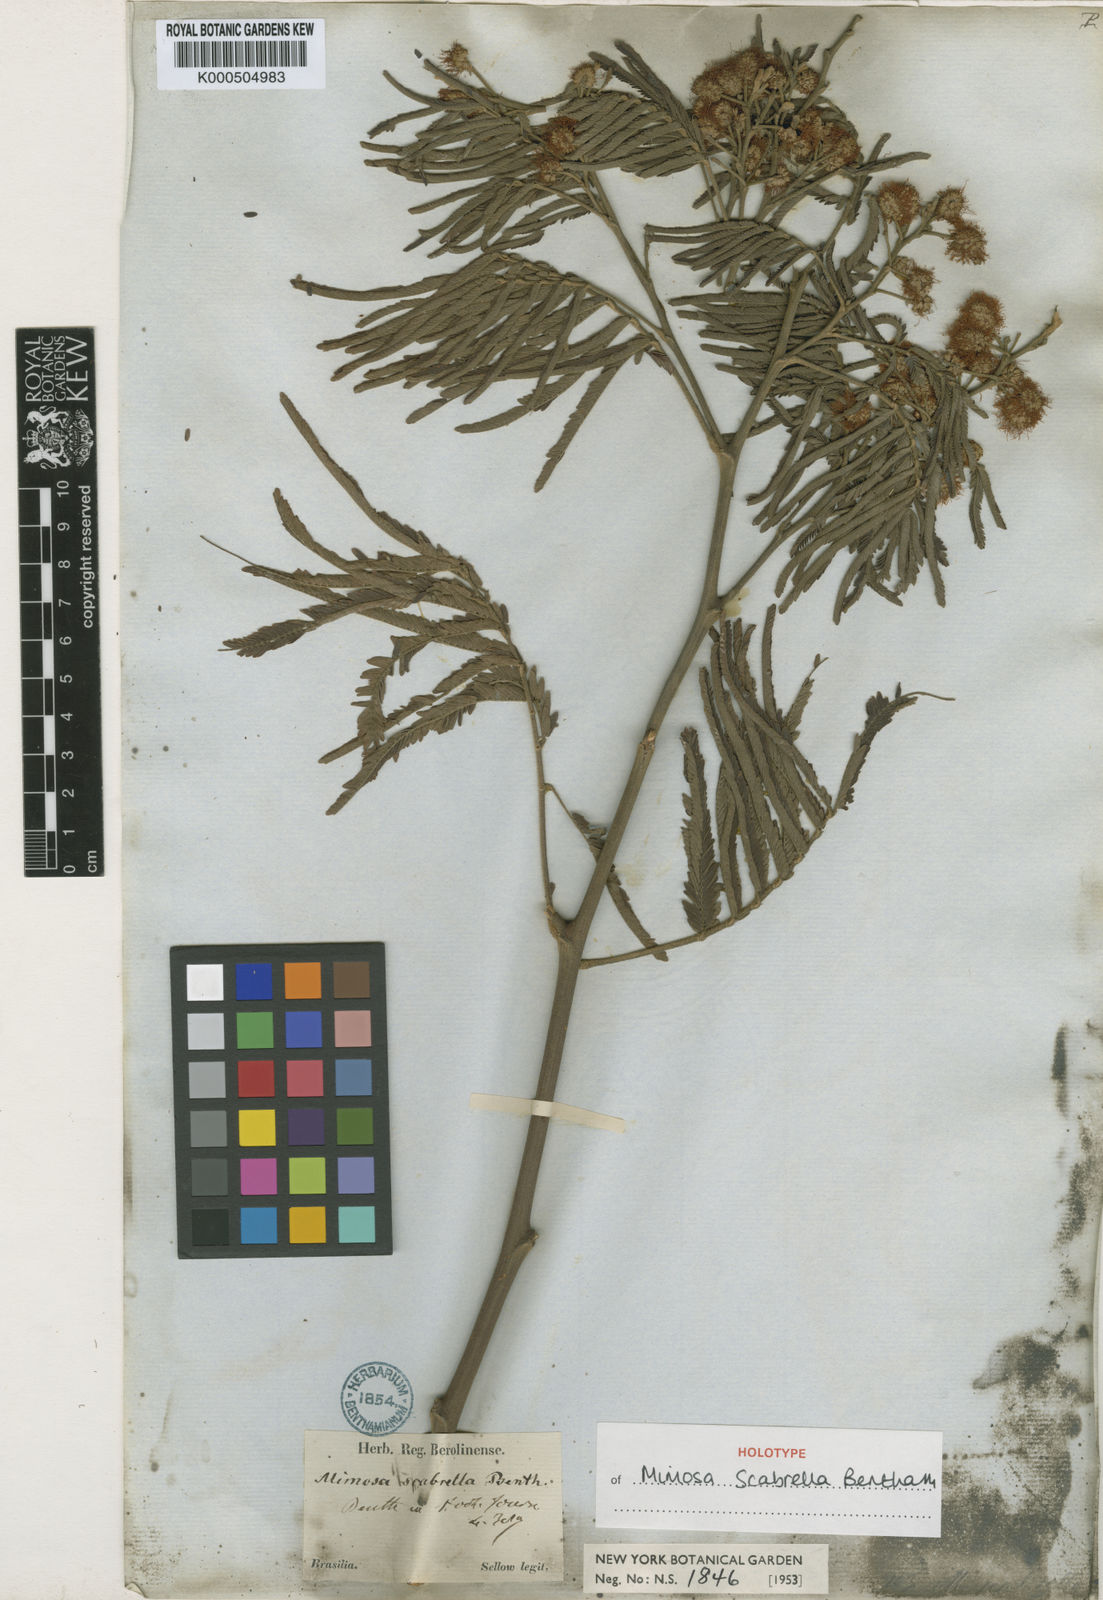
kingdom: Plantae
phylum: Tracheophyta
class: Magnoliopsida
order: Fabales
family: Fabaceae
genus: Mimosa
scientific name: Mimosa scabrella
